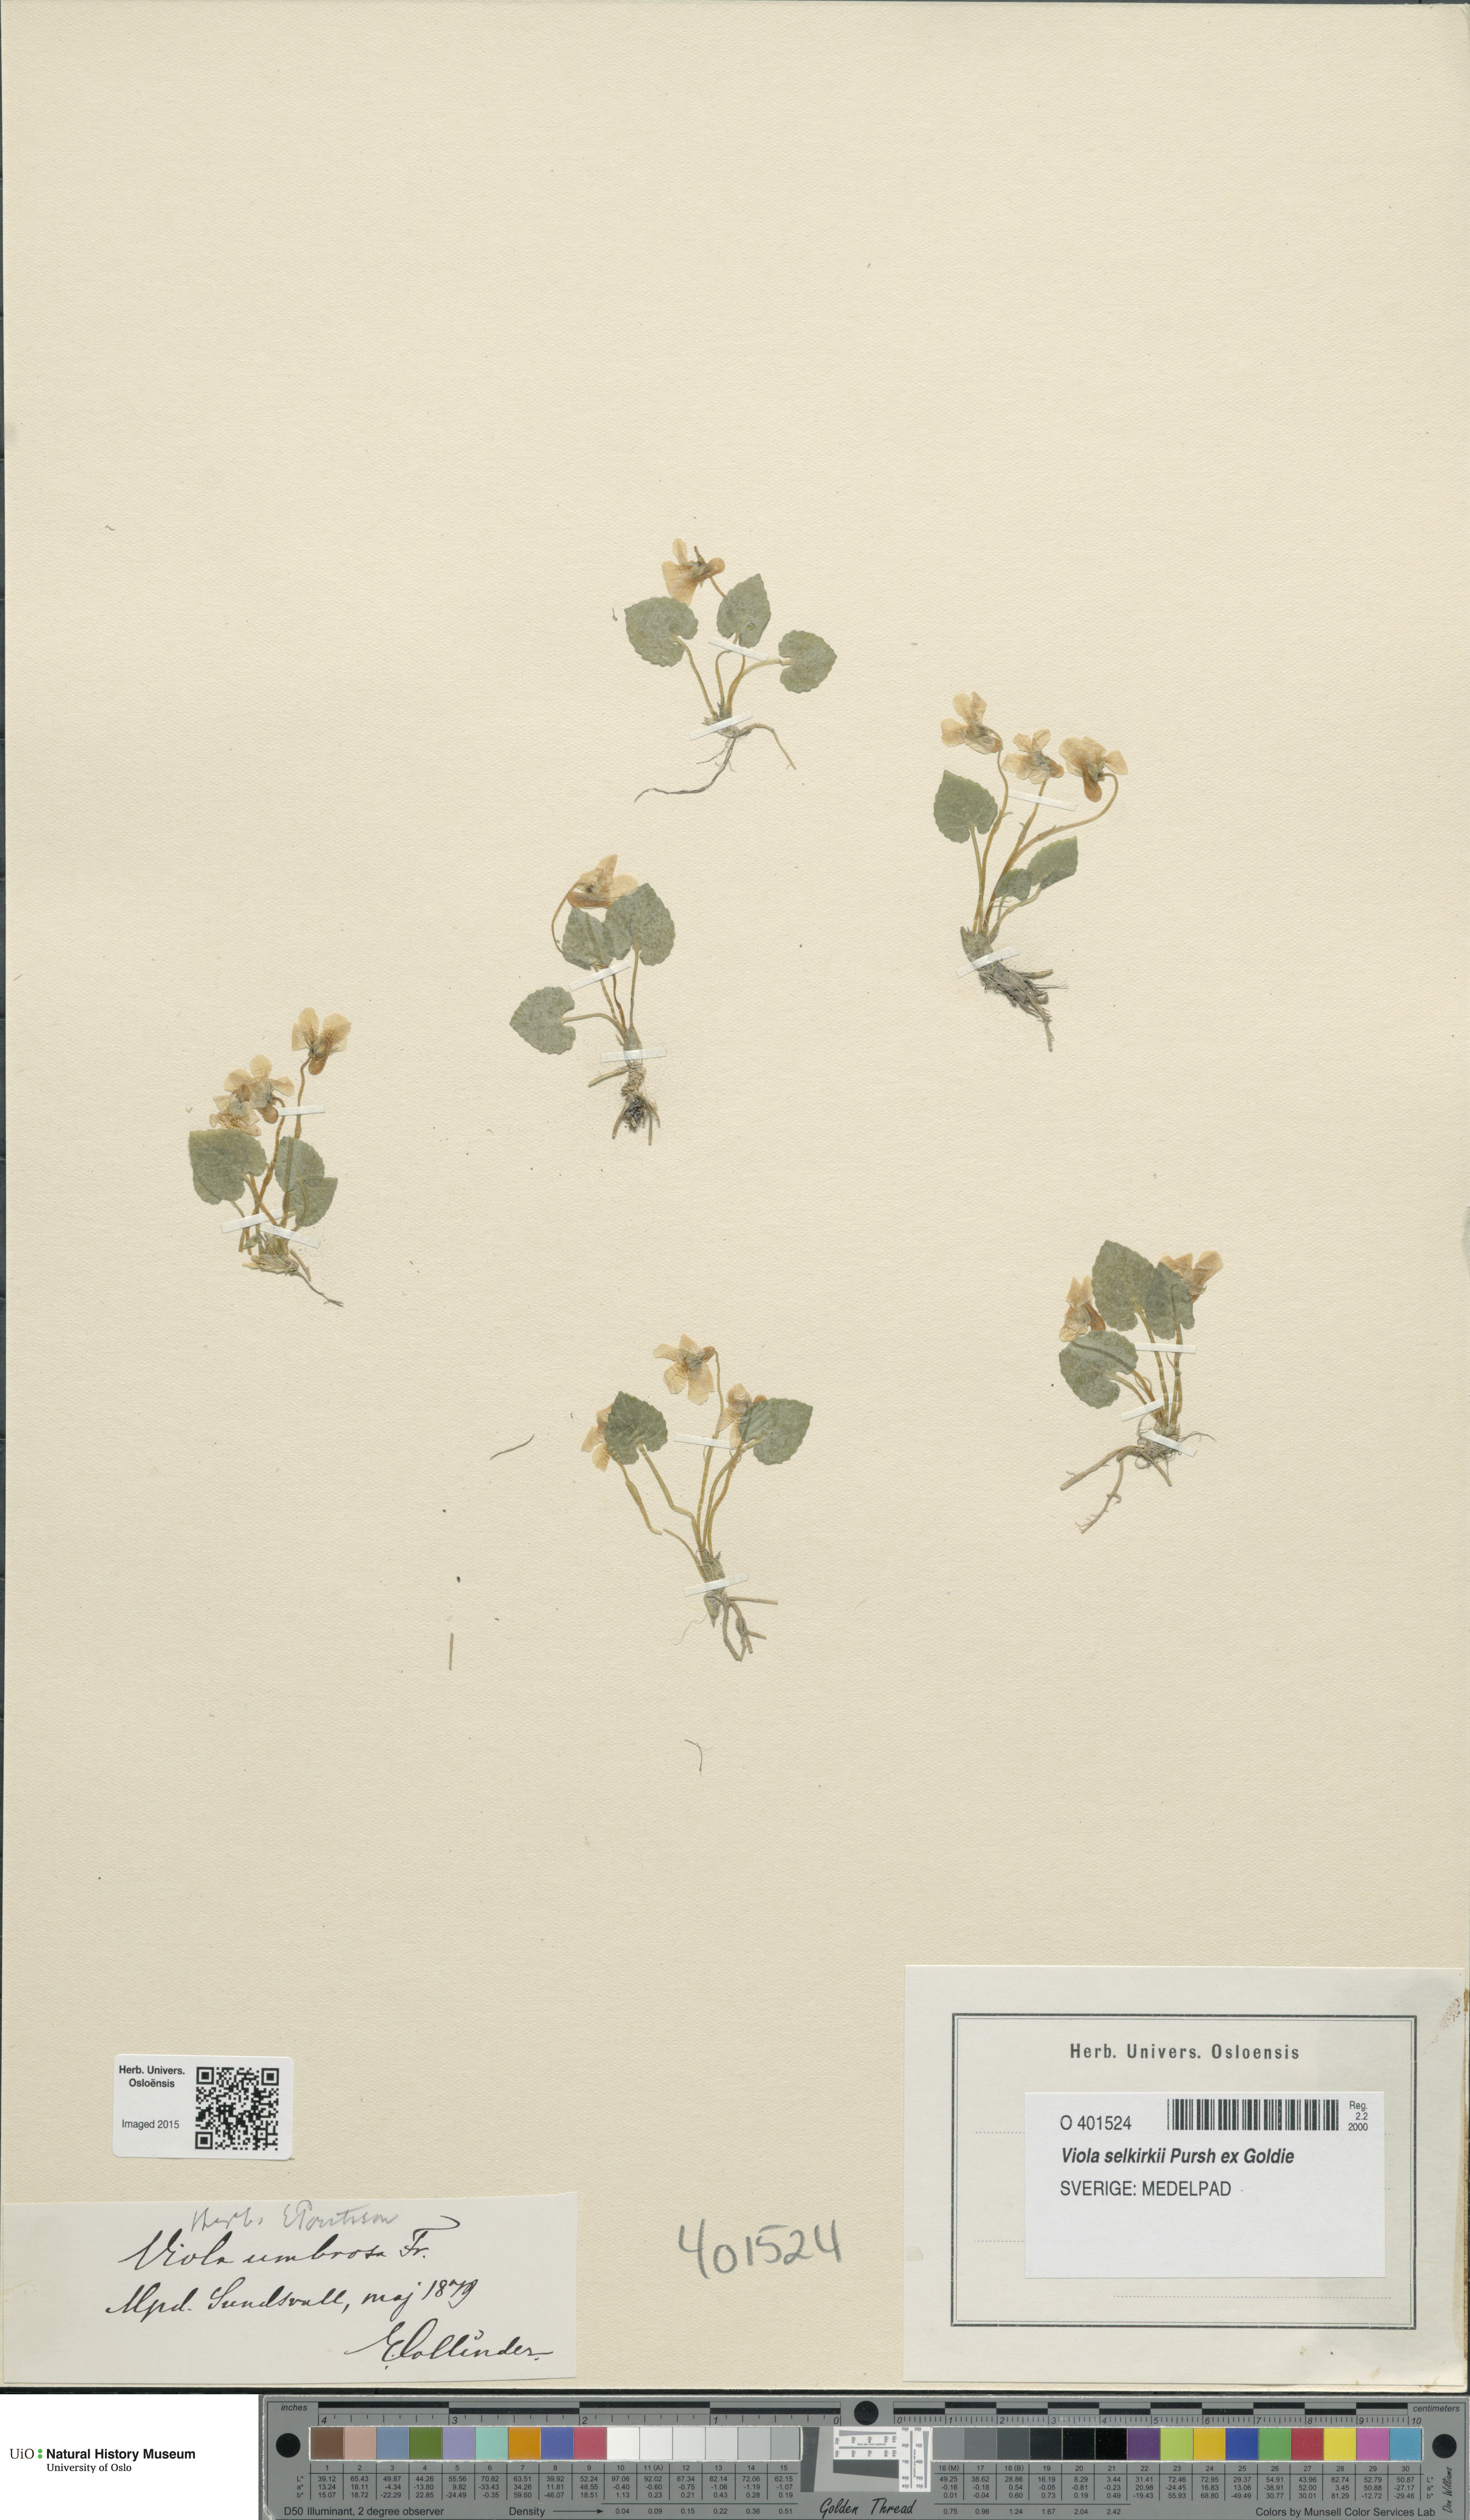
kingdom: Plantae
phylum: Tracheophyta
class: Magnoliopsida
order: Malpighiales
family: Violaceae
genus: Viola
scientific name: Viola selkirkii
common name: Selkirk's violet
